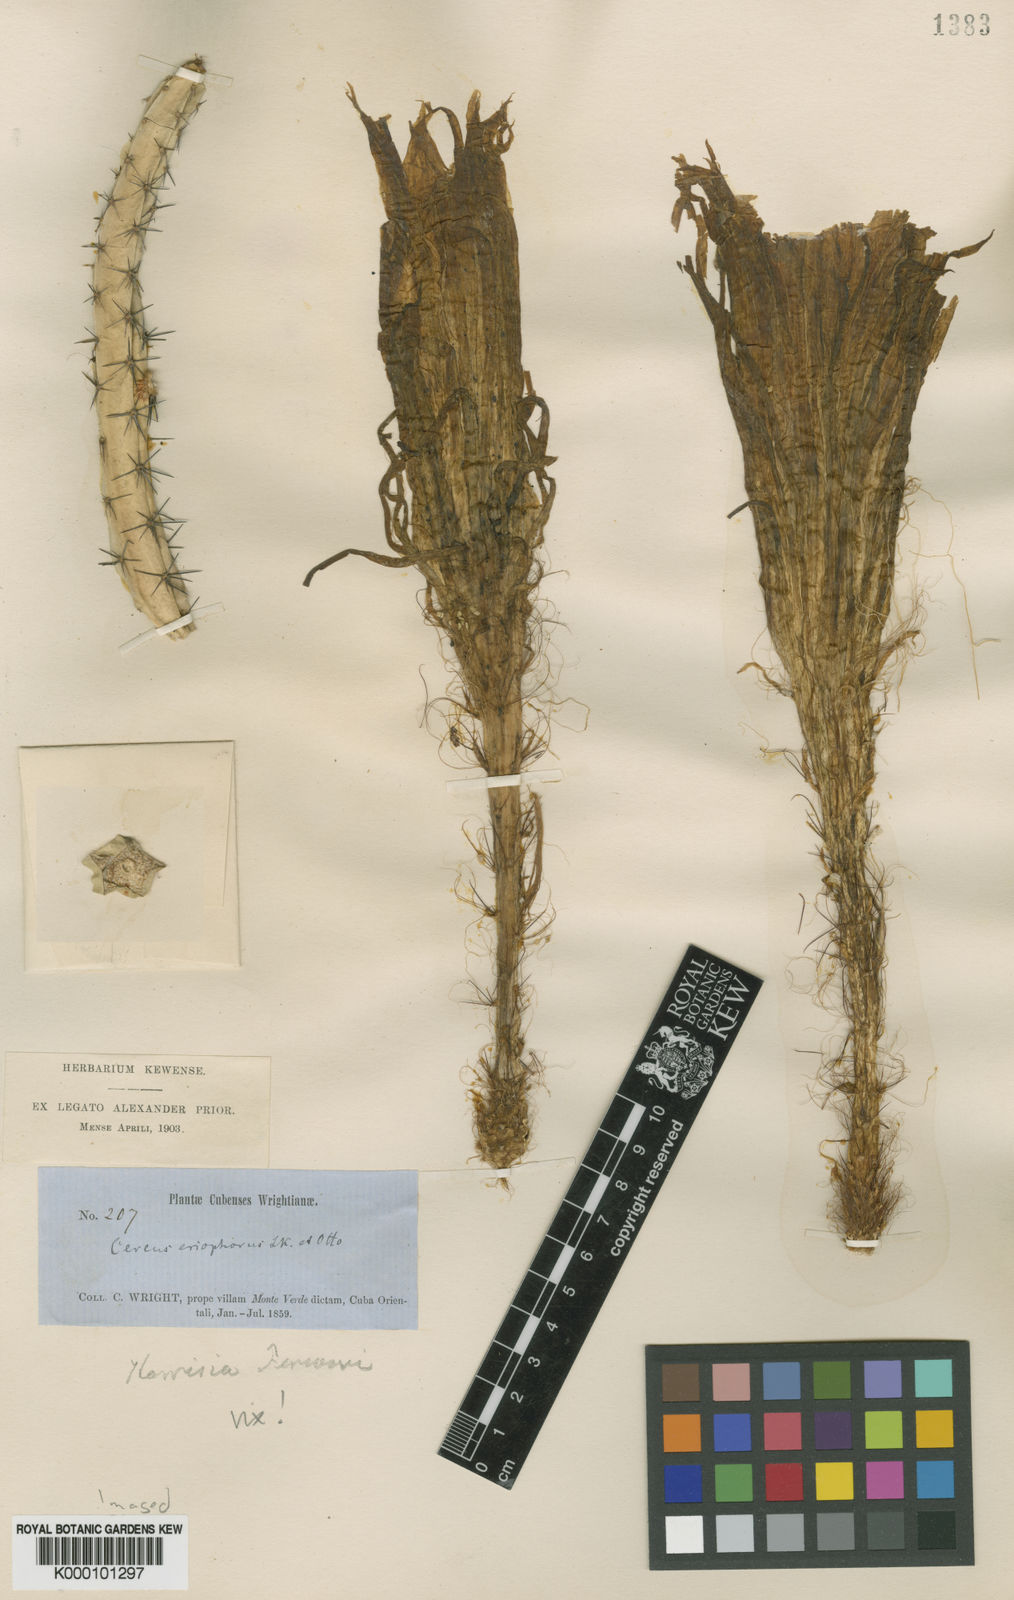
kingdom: Plantae
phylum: Tracheophyta
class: Magnoliopsida
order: Caryophyllales
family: Cactaceae
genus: Selenicereus
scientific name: Selenicereus grandiflorus
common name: Queen of the night
